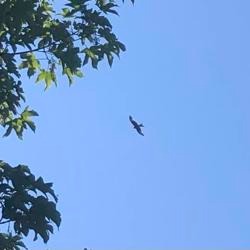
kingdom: Animalia
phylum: Chordata
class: Aves
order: Accipitriformes
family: Accipitridae
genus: Milvus
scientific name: Milvus milvus
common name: Rød glente
